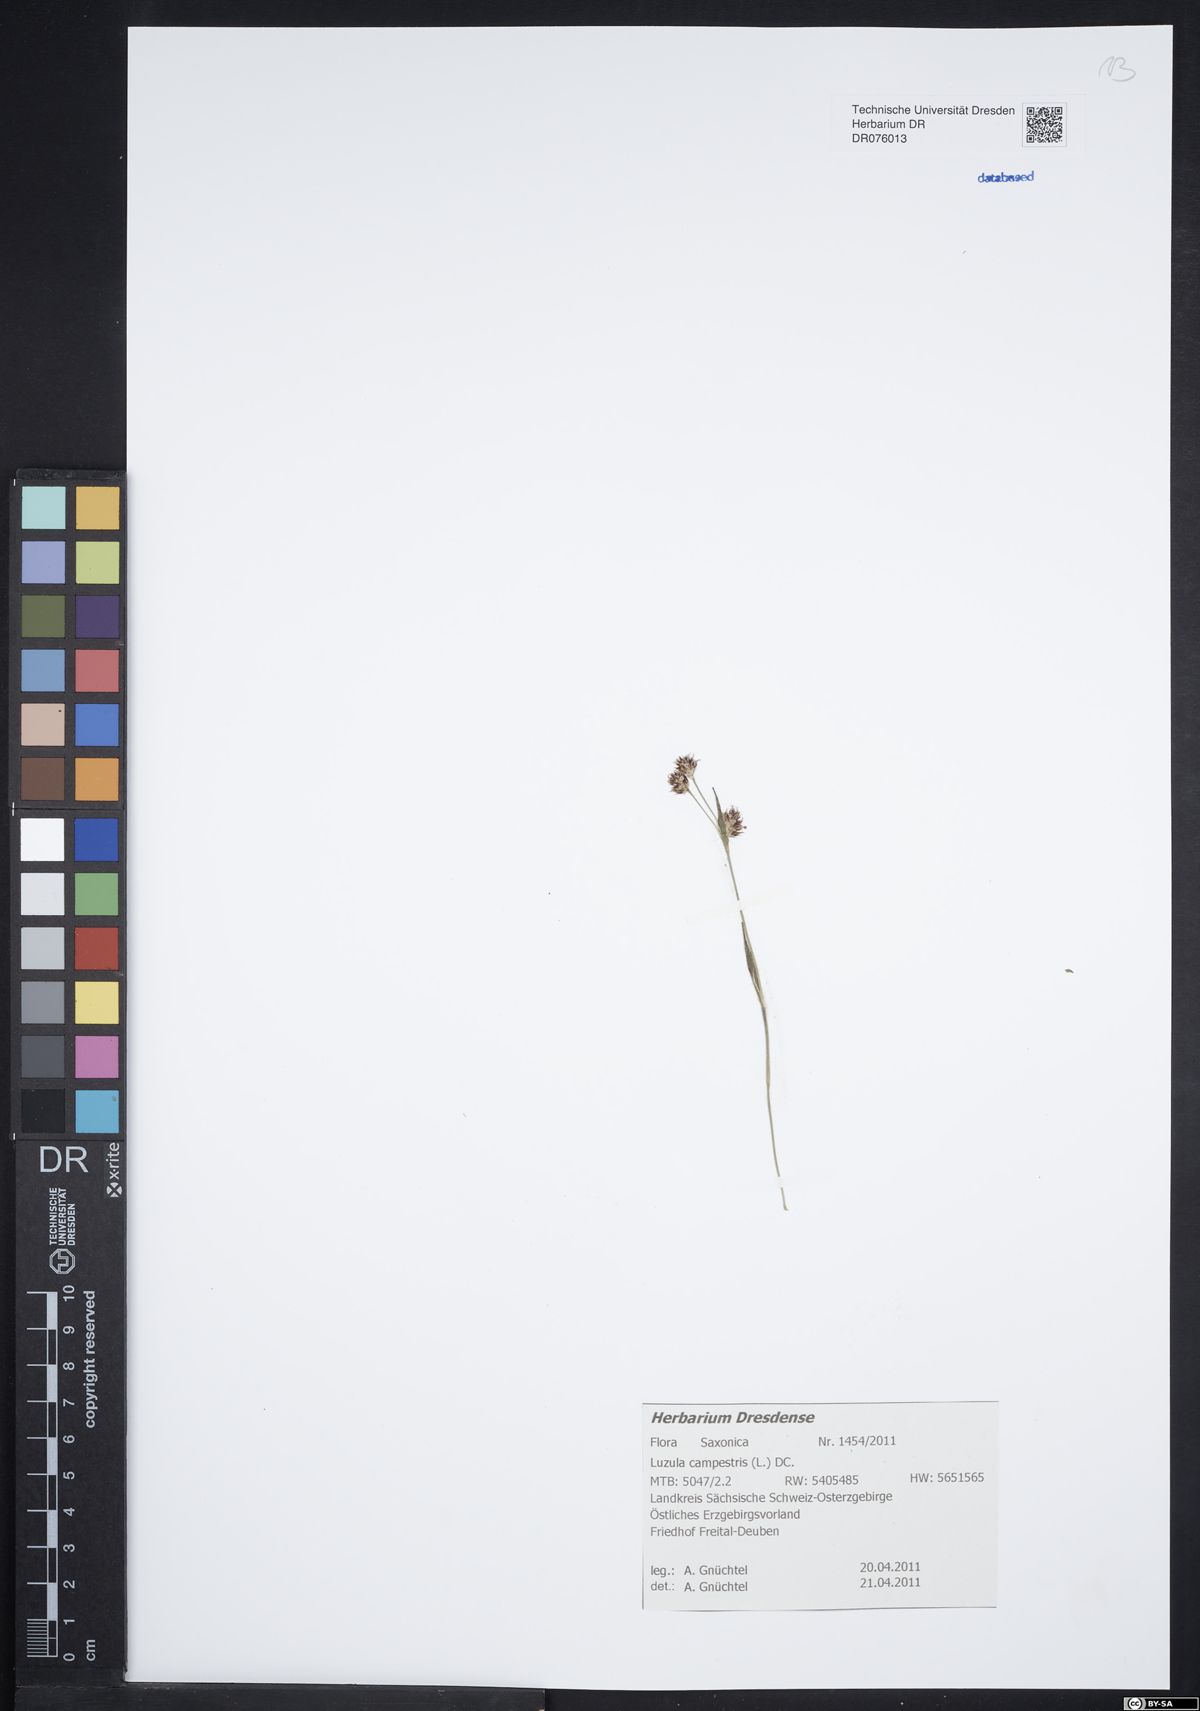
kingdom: Plantae
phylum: Tracheophyta
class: Liliopsida
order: Poales
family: Juncaceae
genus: Luzula
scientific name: Luzula campestris
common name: Field wood-rush
